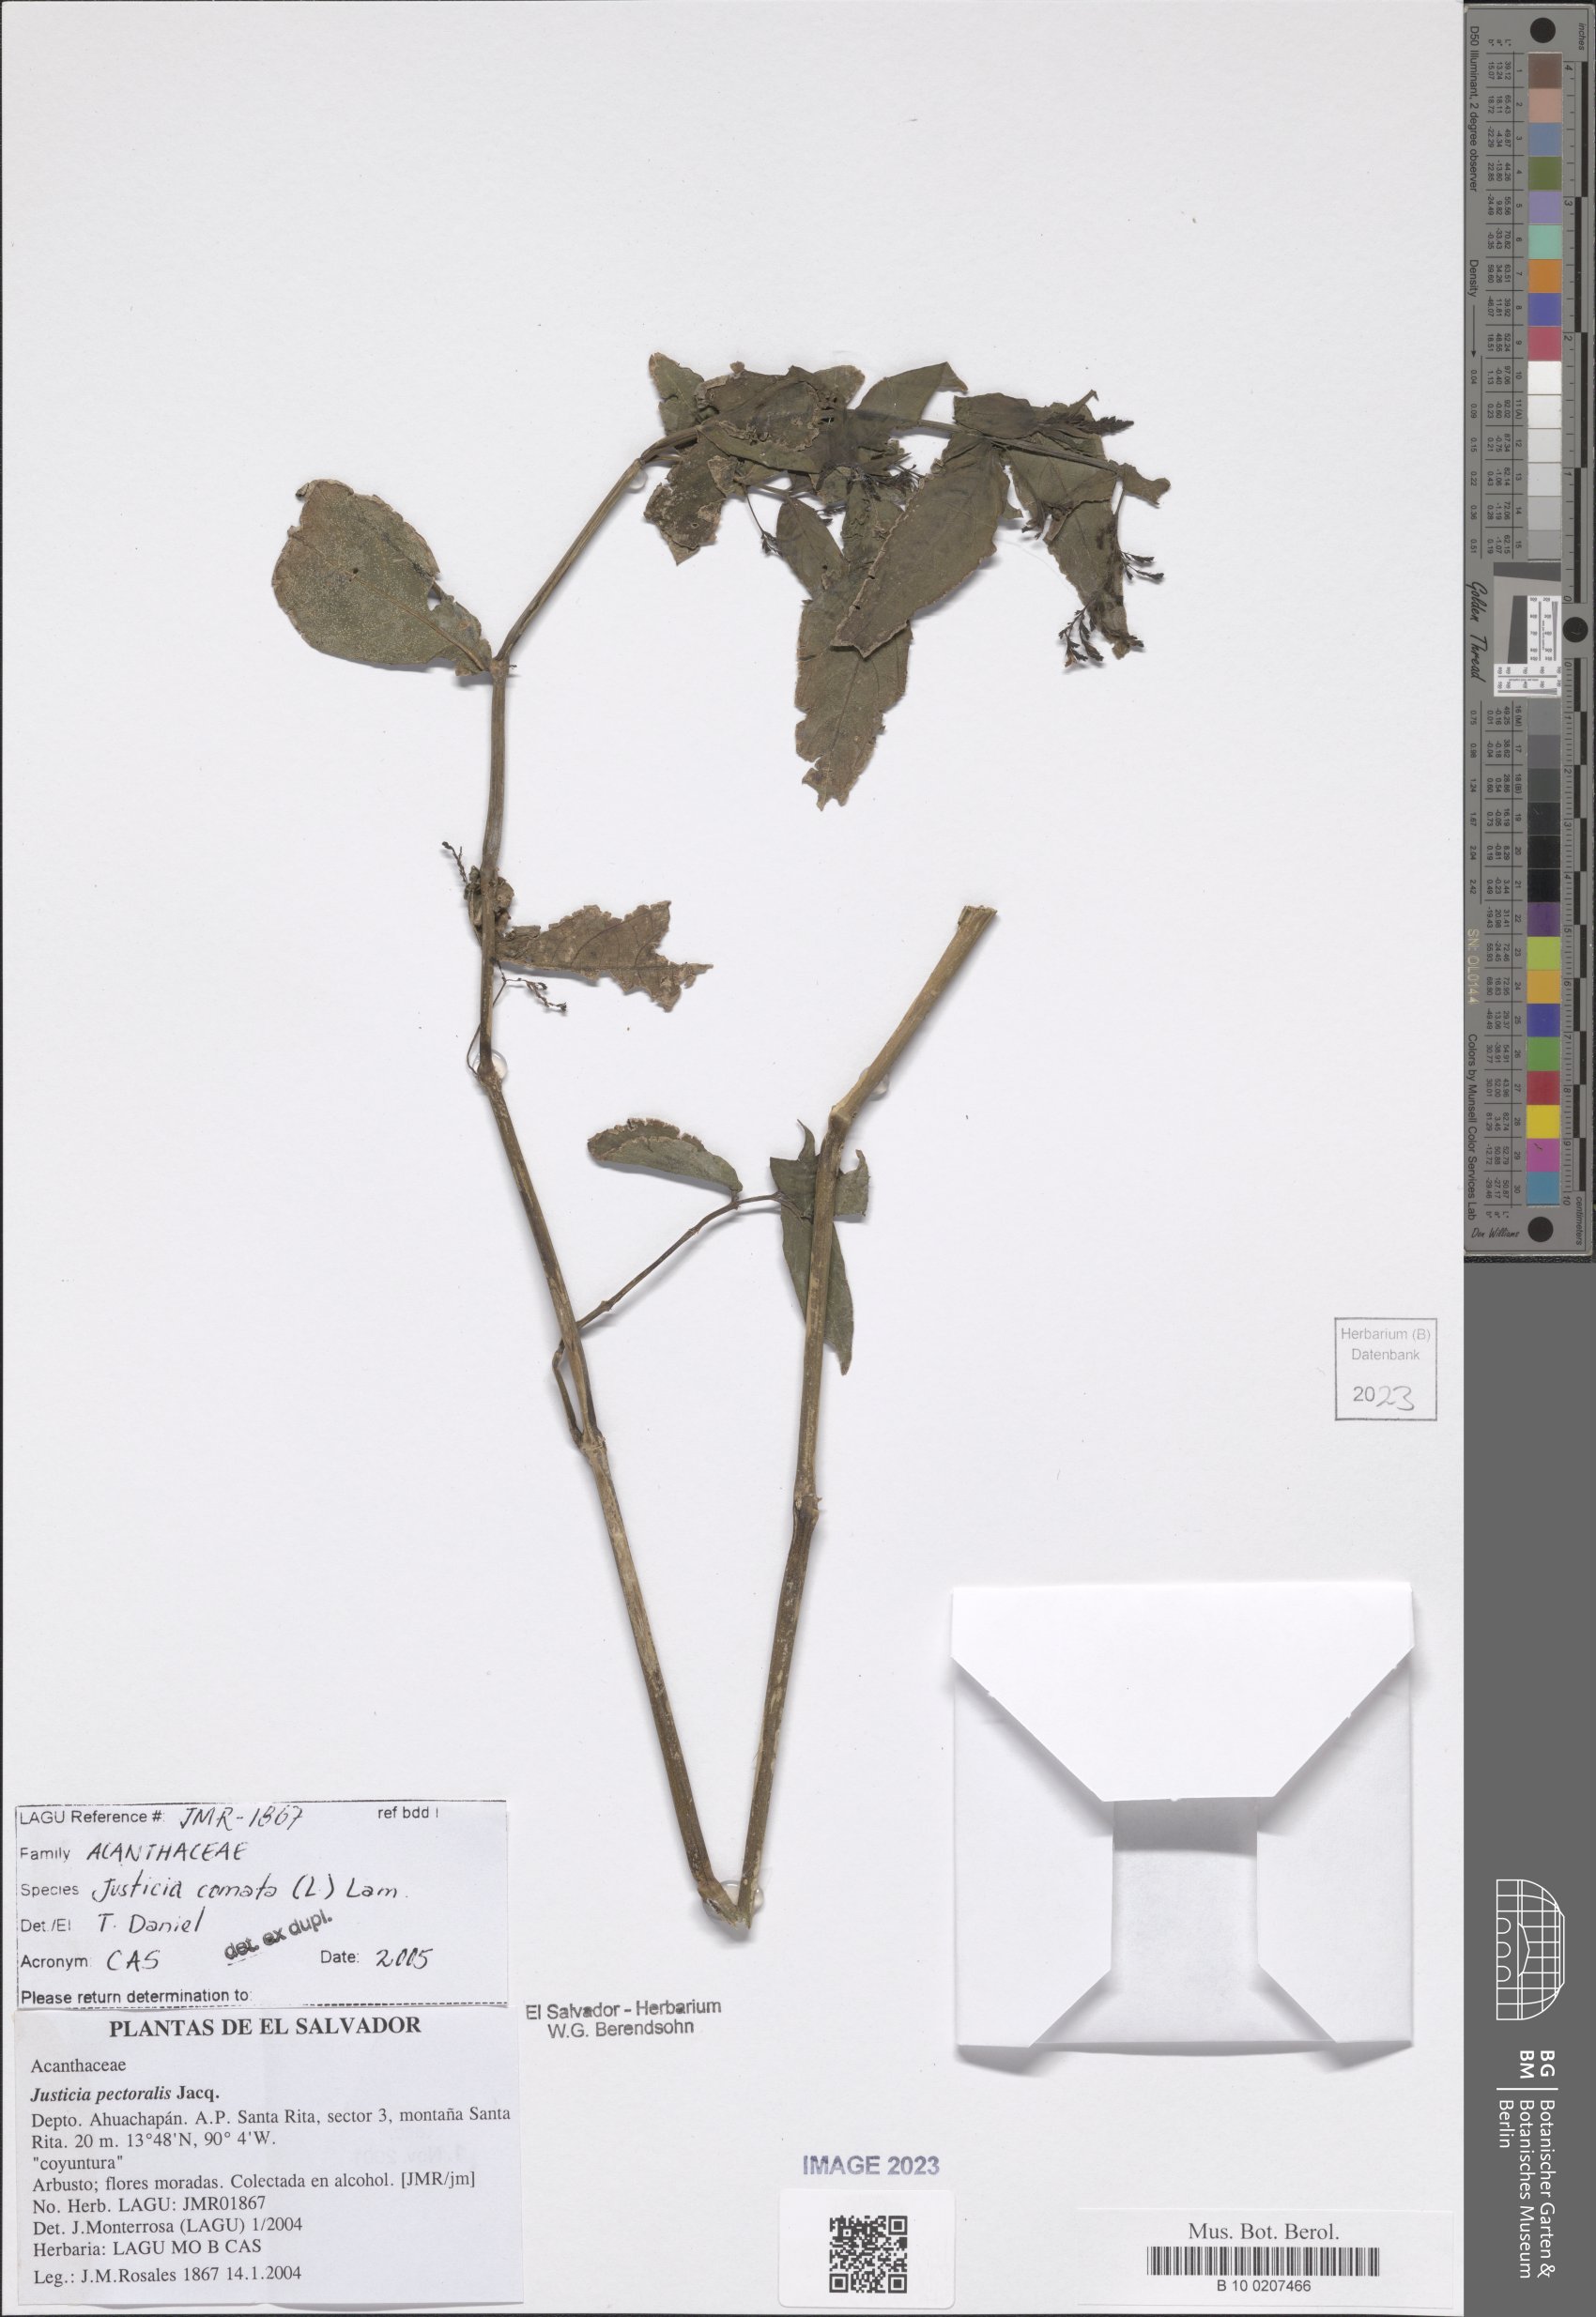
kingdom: Plantae
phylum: Tracheophyta
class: Magnoliopsida
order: Lamiales
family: Acanthaceae
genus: Dianthera
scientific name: Dianthera comata
